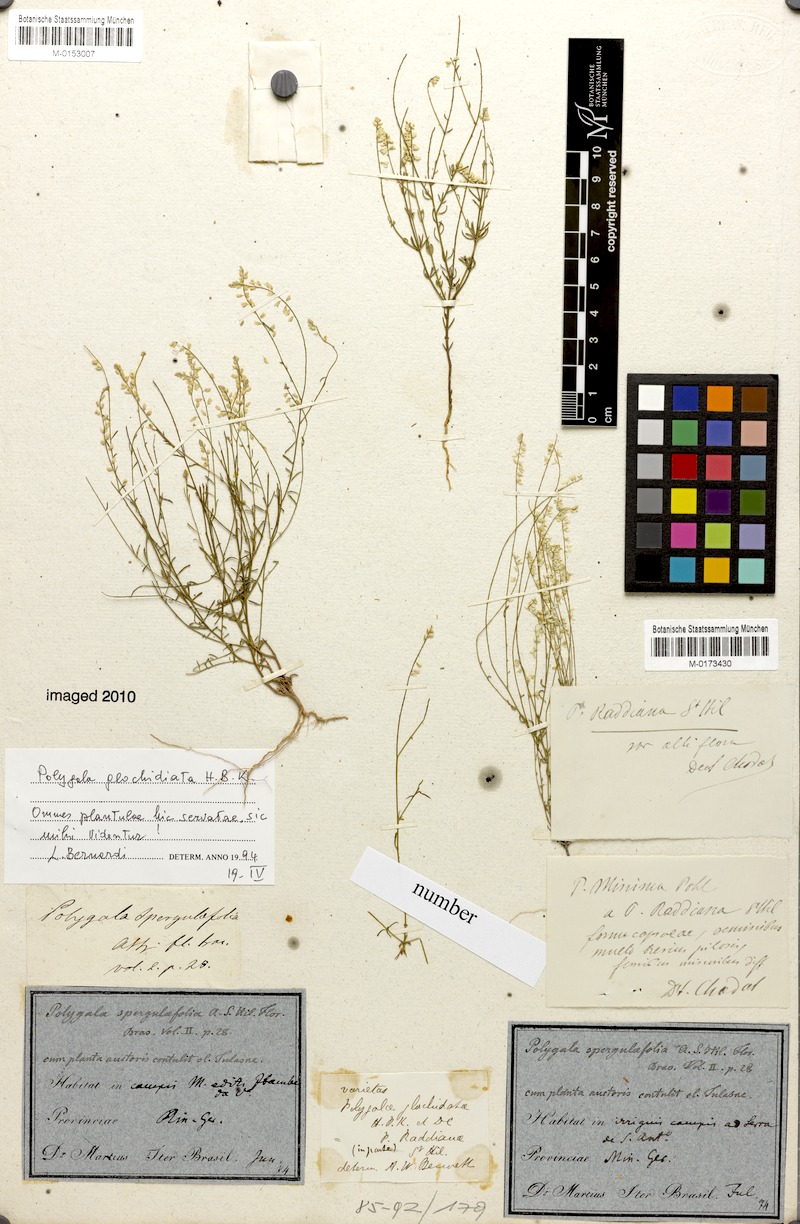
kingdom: Plantae
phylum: Tracheophyta
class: Magnoliopsida
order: Fabales
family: Polygalaceae
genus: Polygala
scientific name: Polygala glochidiata
